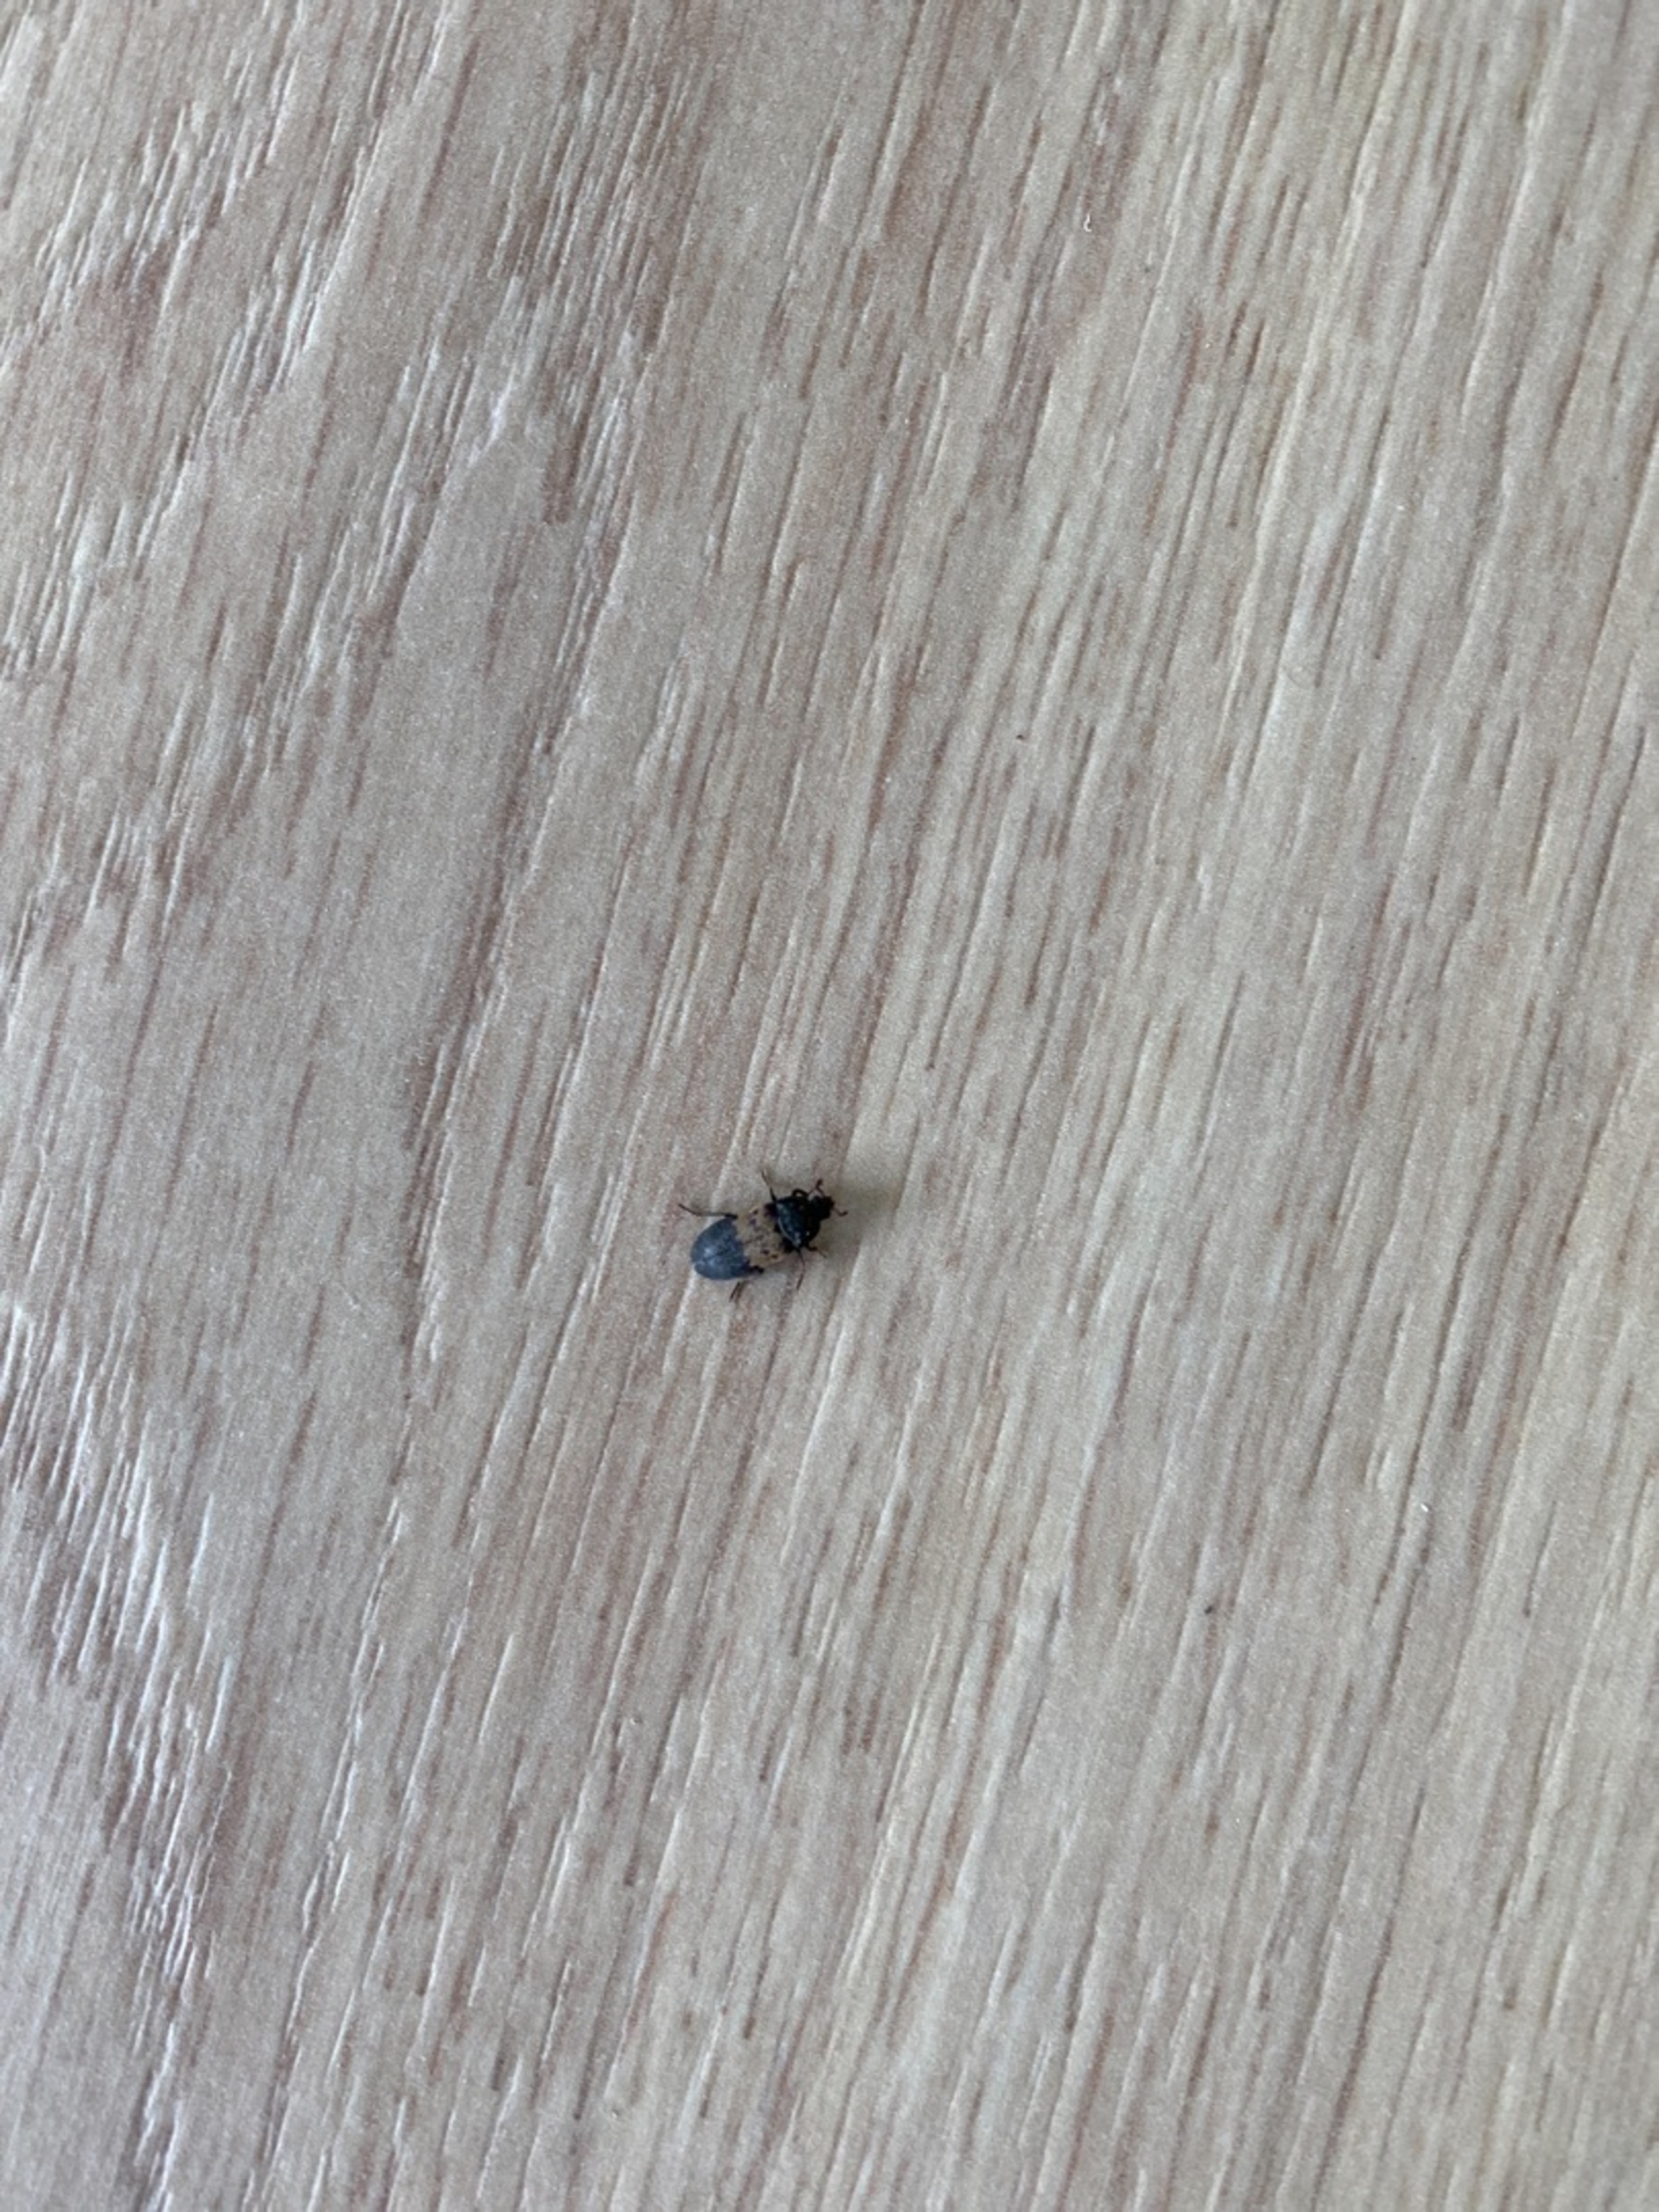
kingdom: Animalia
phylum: Arthropoda
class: Insecta
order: Coleoptera
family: Dermestidae
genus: Dermestes
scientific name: Dermestes lardarius
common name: Flæskeklanner
